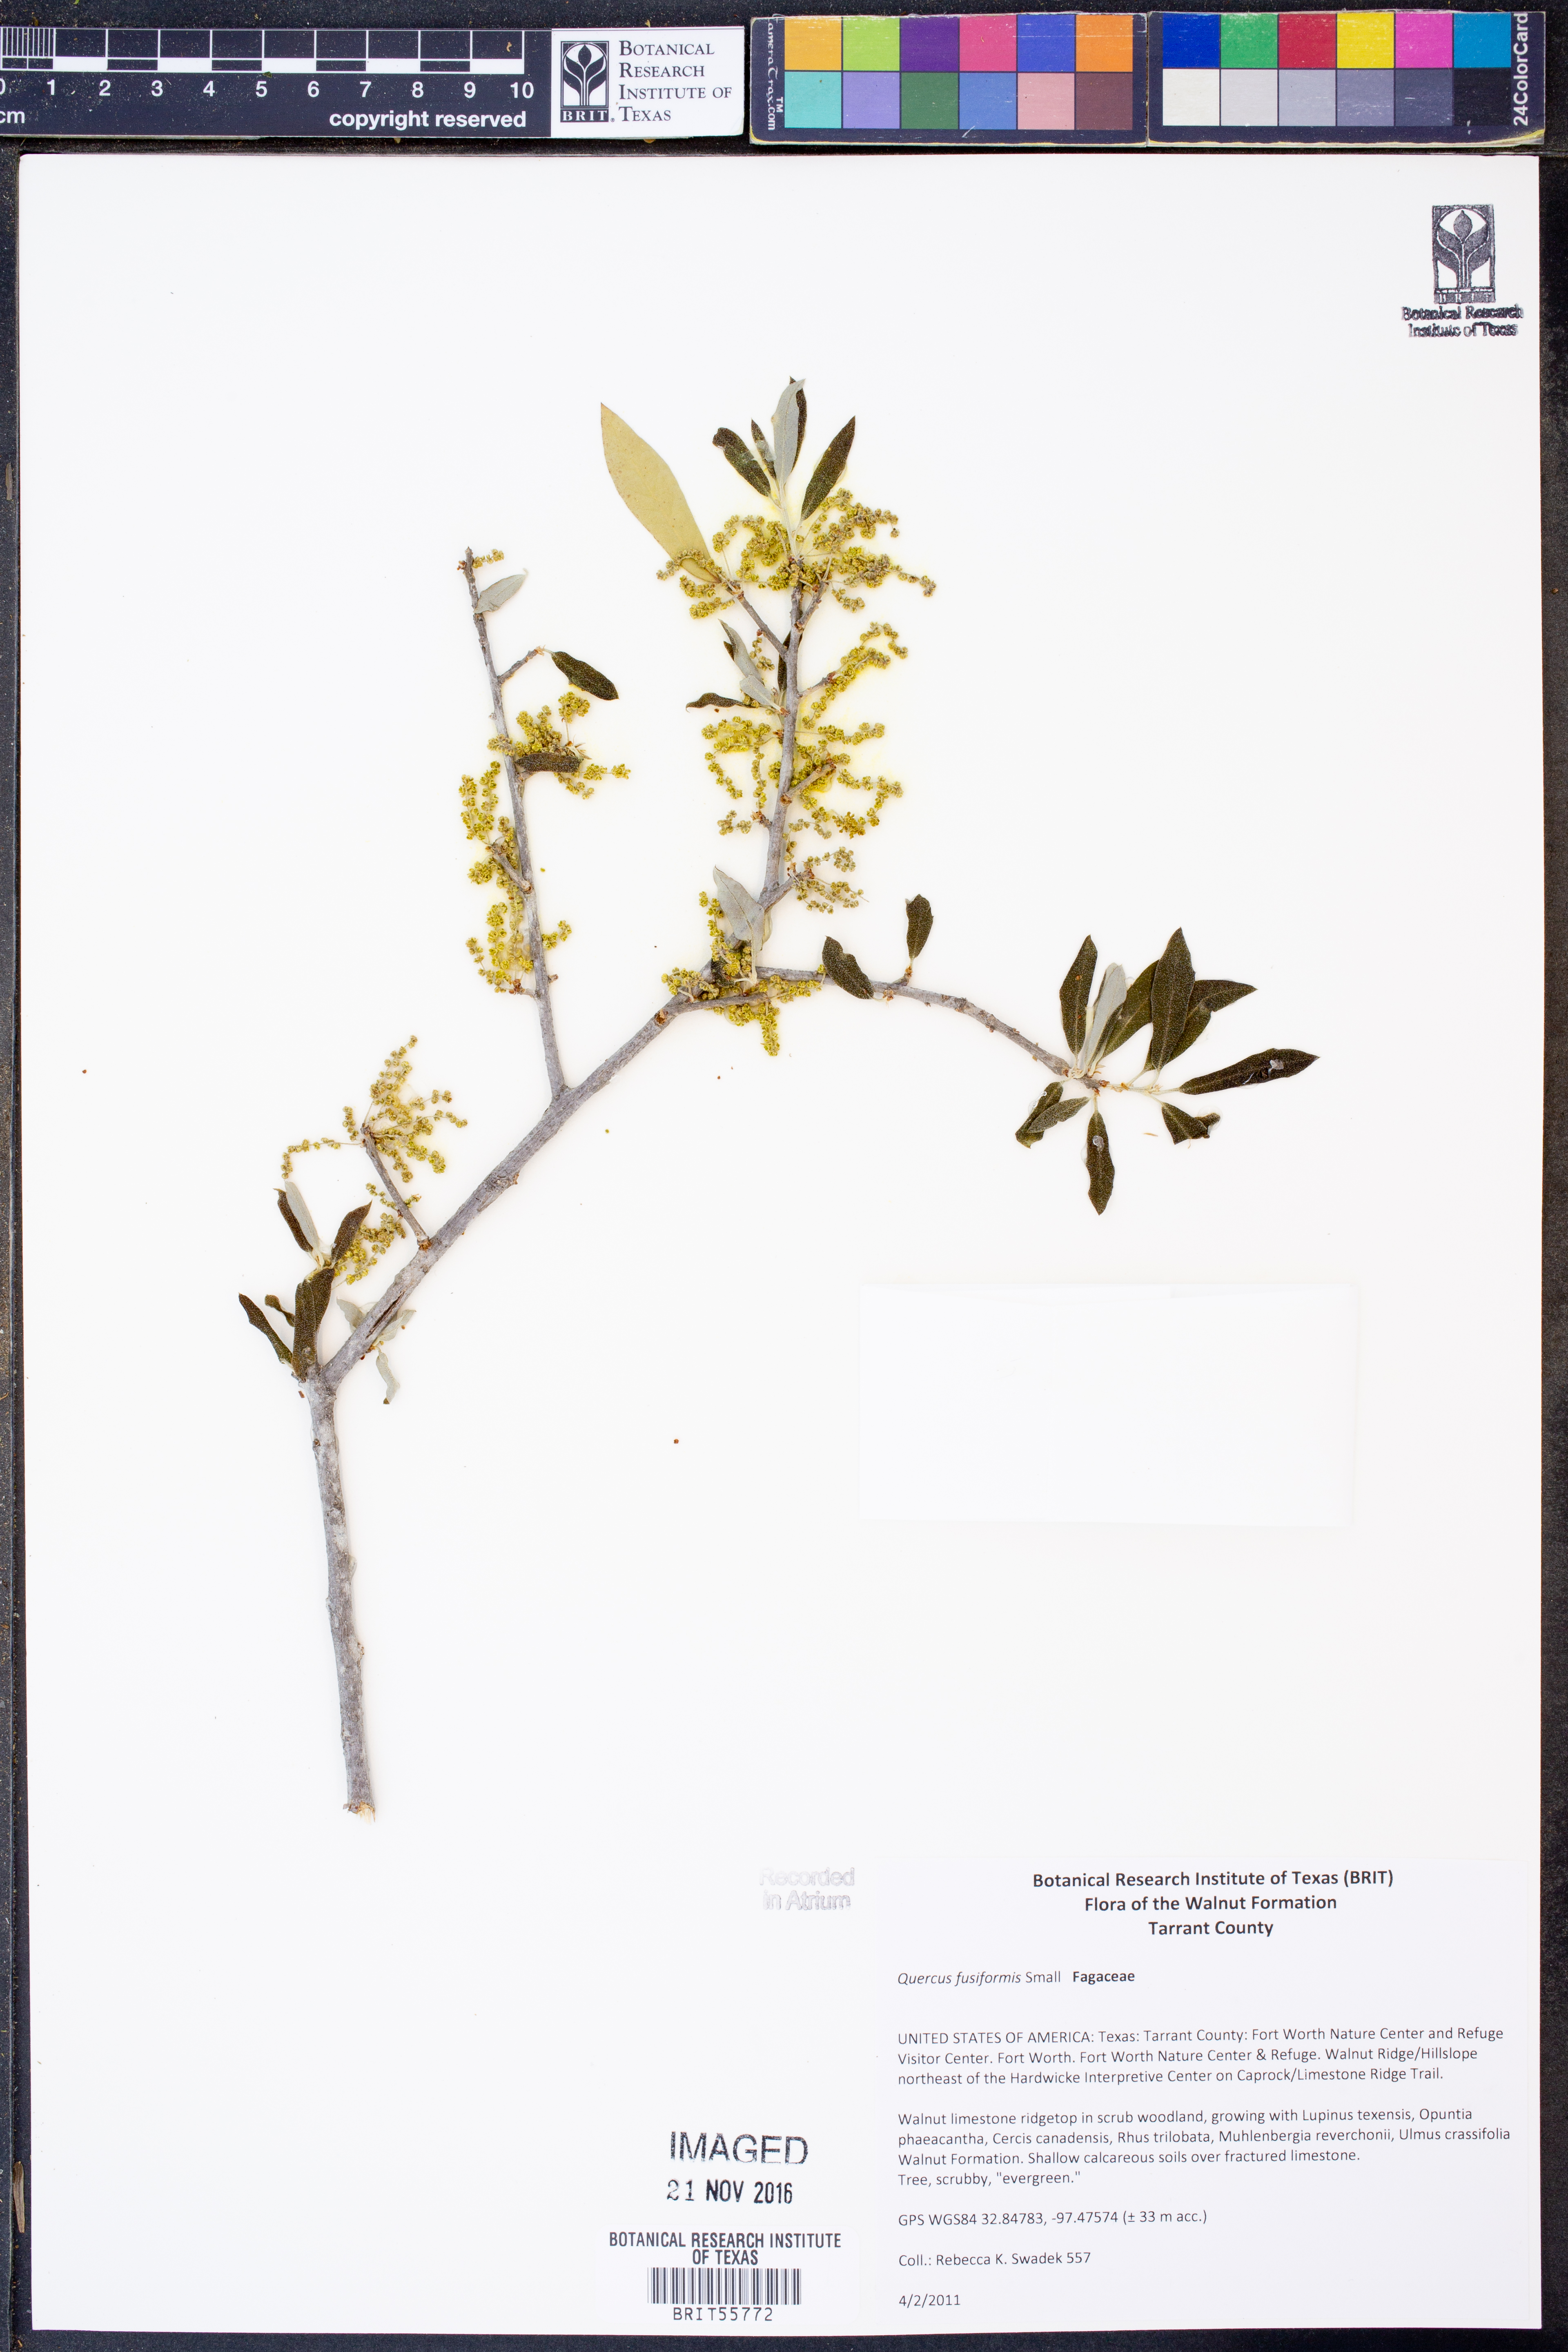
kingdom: Plantae
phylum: Tracheophyta
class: Magnoliopsida
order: Fagales
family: Fagaceae
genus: Quercus
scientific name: Quercus fusiformis
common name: Texas live oak
